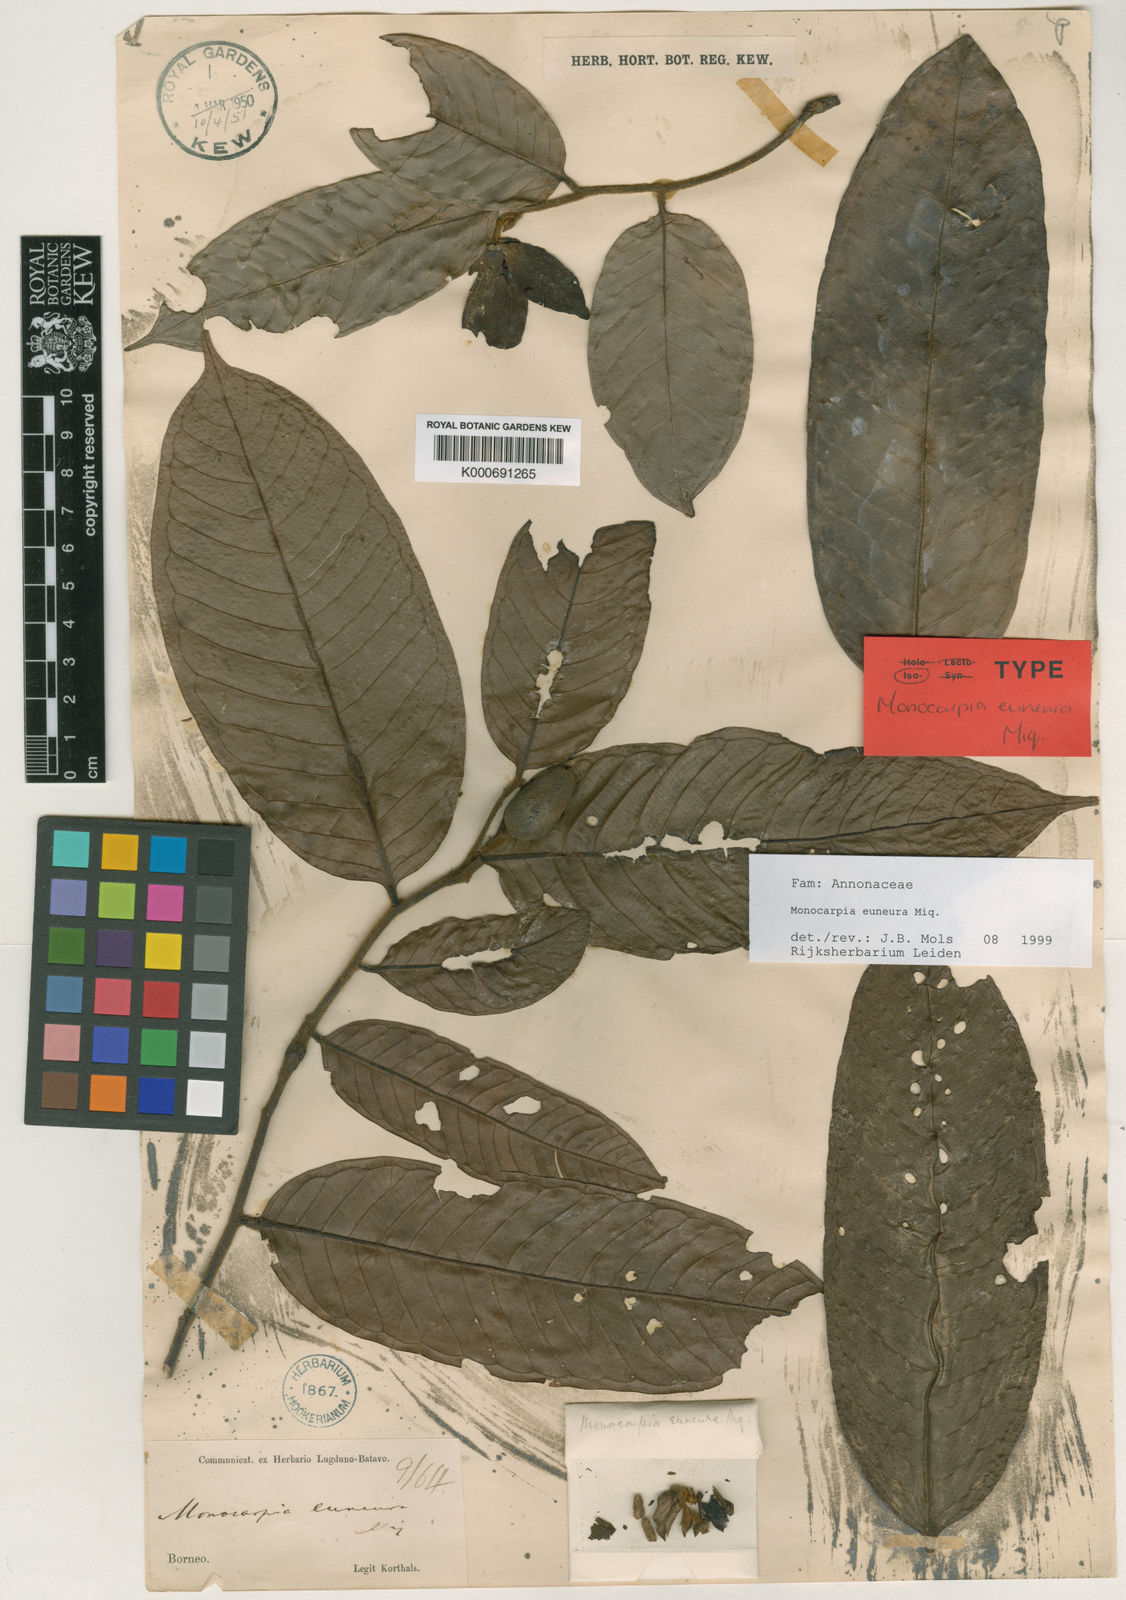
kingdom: Plantae
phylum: Tracheophyta
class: Magnoliopsida
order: Magnoliales
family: Annonaceae
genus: Monocarpia
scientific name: Monocarpia marginalis
